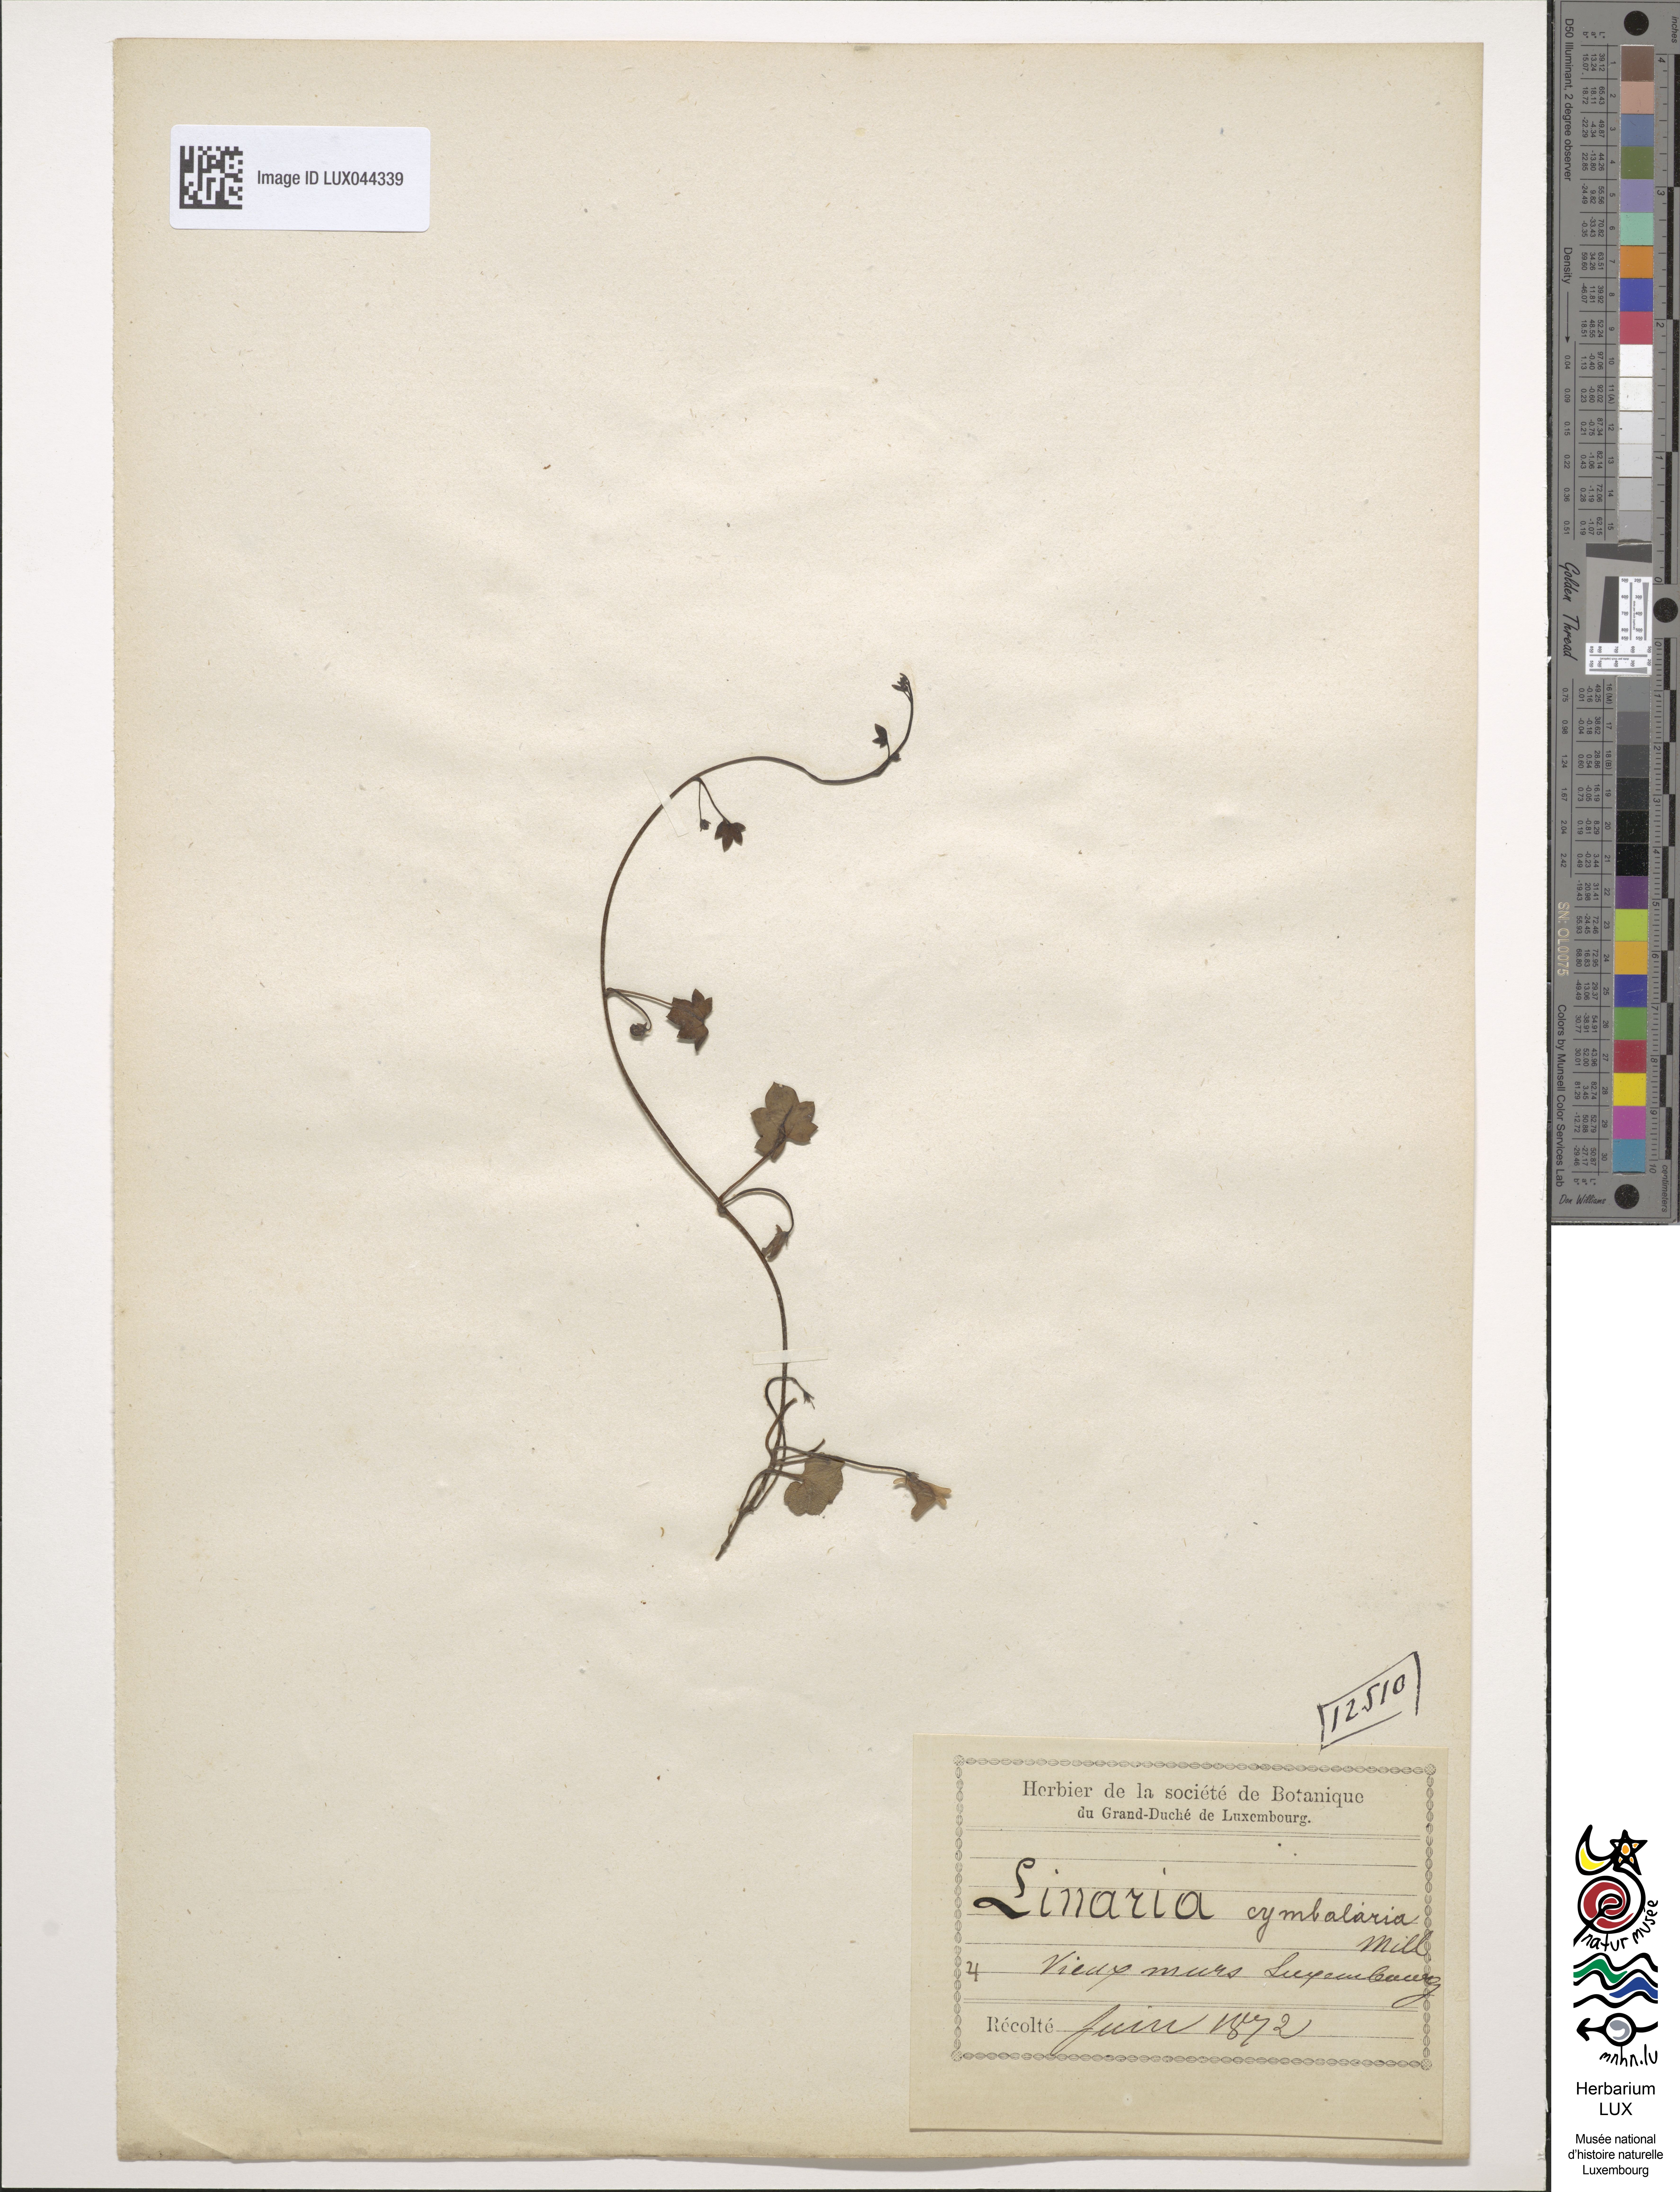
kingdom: Plantae
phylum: Tracheophyta
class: Magnoliopsida
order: Lamiales
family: Plantaginaceae
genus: Cymbalaria
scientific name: Cymbalaria muralis
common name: Ivy-leaved toadflax
